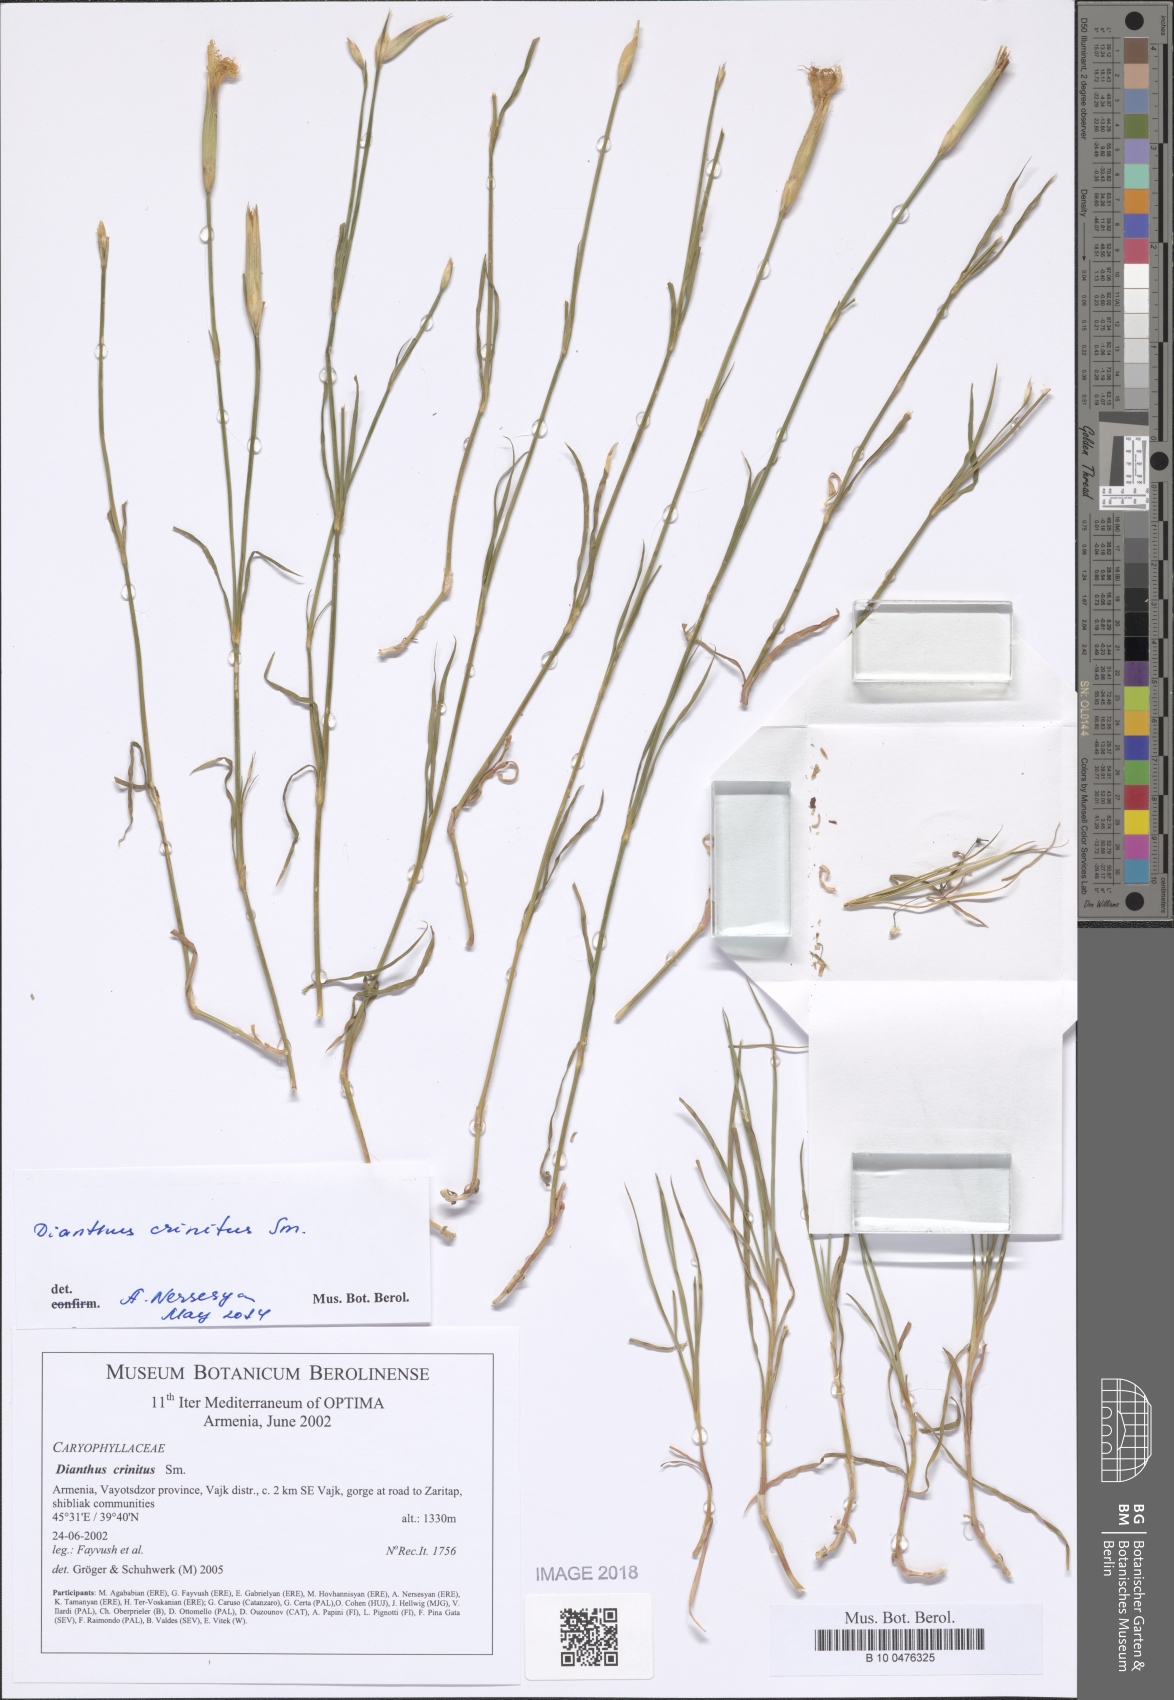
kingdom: Plantae
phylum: Tracheophyta
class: Magnoliopsida
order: Caryophyllales
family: Caryophyllaceae
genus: Dianthus
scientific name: Dianthus crinitus
